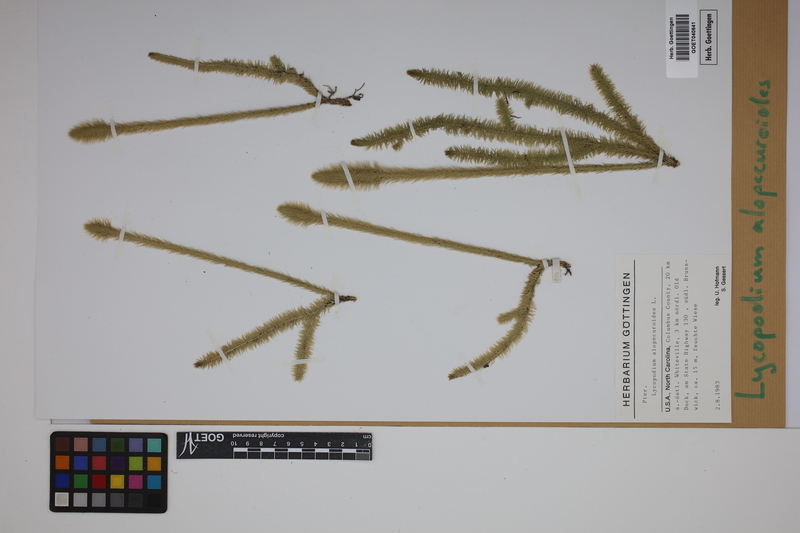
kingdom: Plantae
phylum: Tracheophyta
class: Lycopodiopsida
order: Lycopodiales
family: Lycopodiaceae
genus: Lycopodiella
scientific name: Lycopodiella alopecuroides
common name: Foxtail clubmoss
